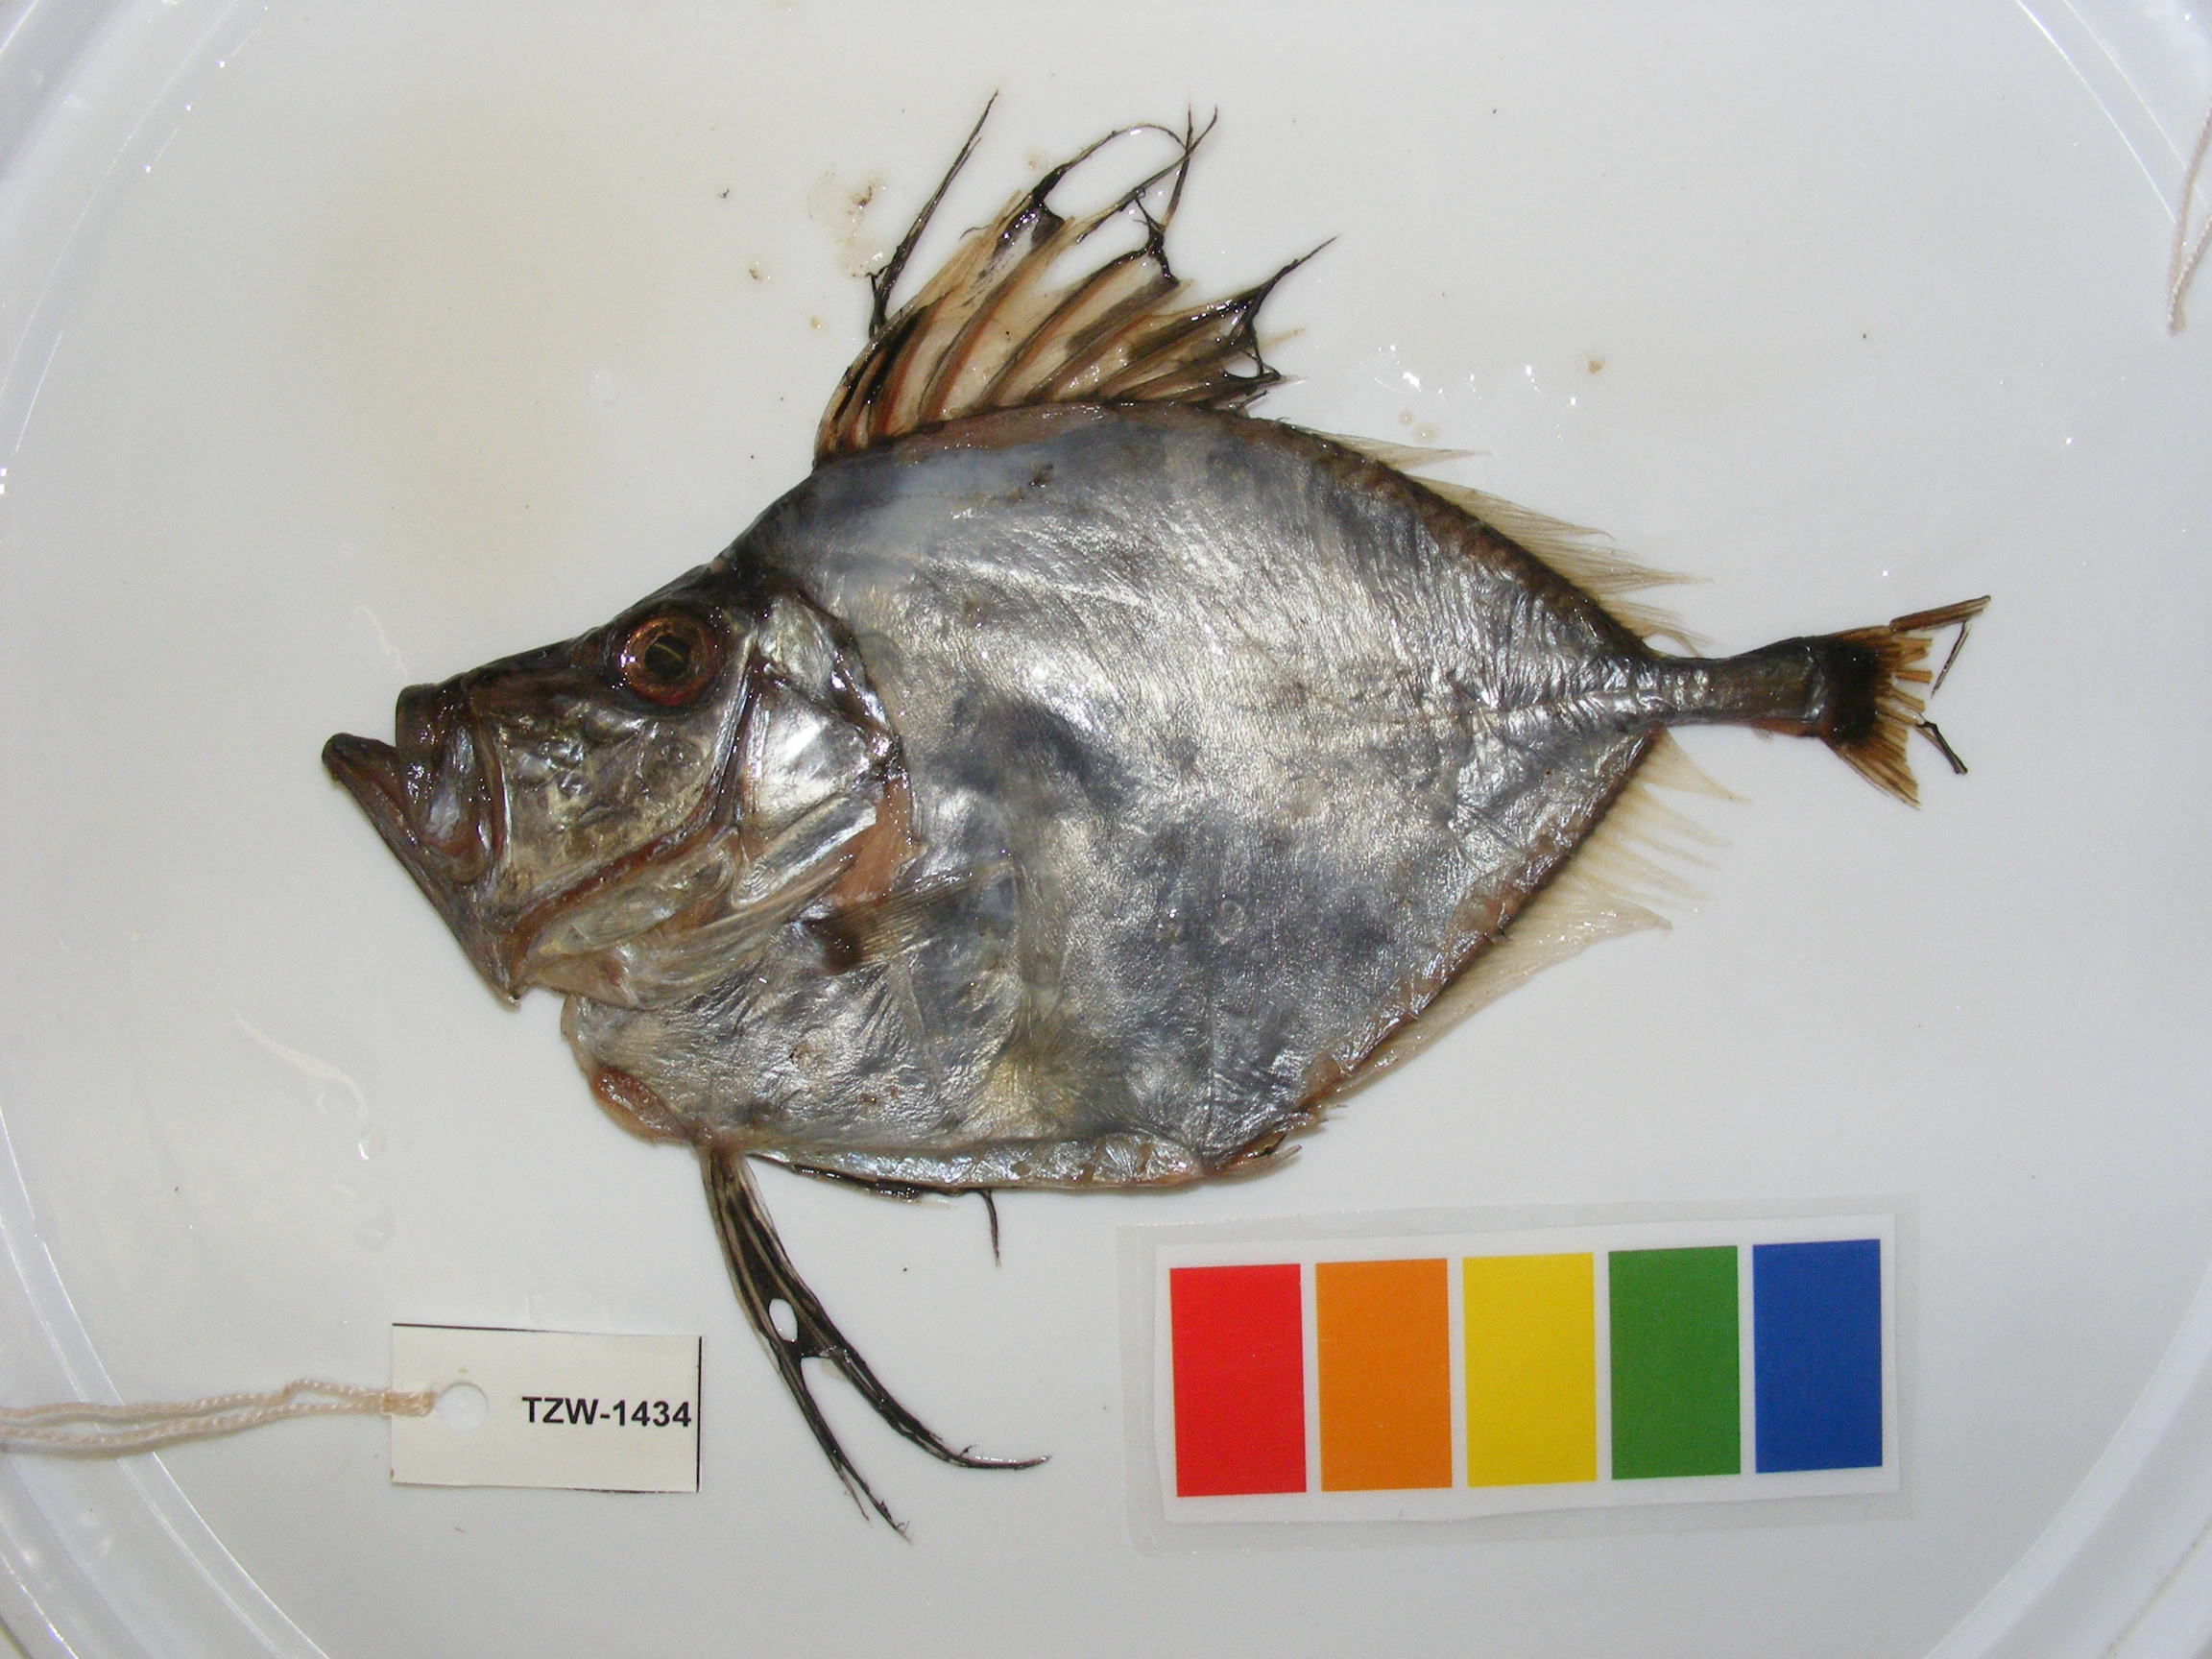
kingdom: Animalia
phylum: Chordata
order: Zeiformes
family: Zeidae
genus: Zenopsis
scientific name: Zenopsis conchifer
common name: Silvery john dory
